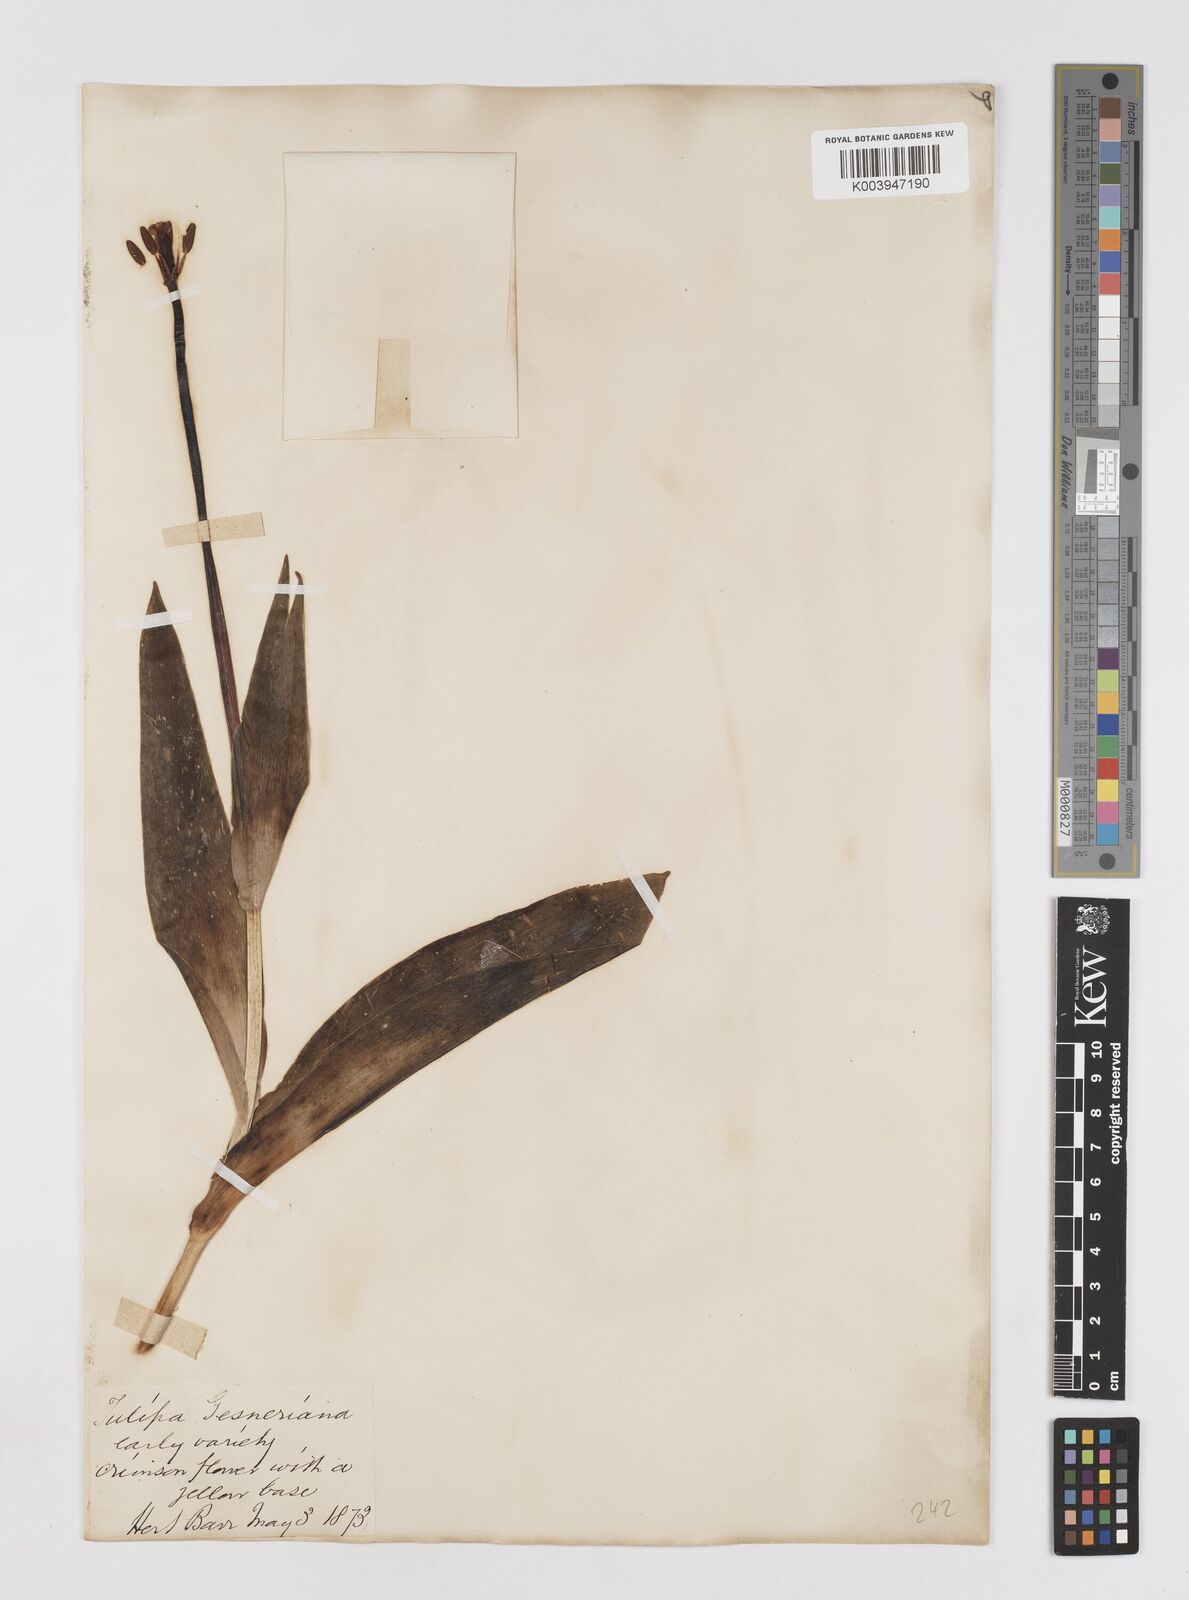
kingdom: Plantae
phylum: Tracheophyta
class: Liliopsida
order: Liliales
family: Liliaceae
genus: Tulipa
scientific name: Tulipa gesneriana
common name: Garden tulip
